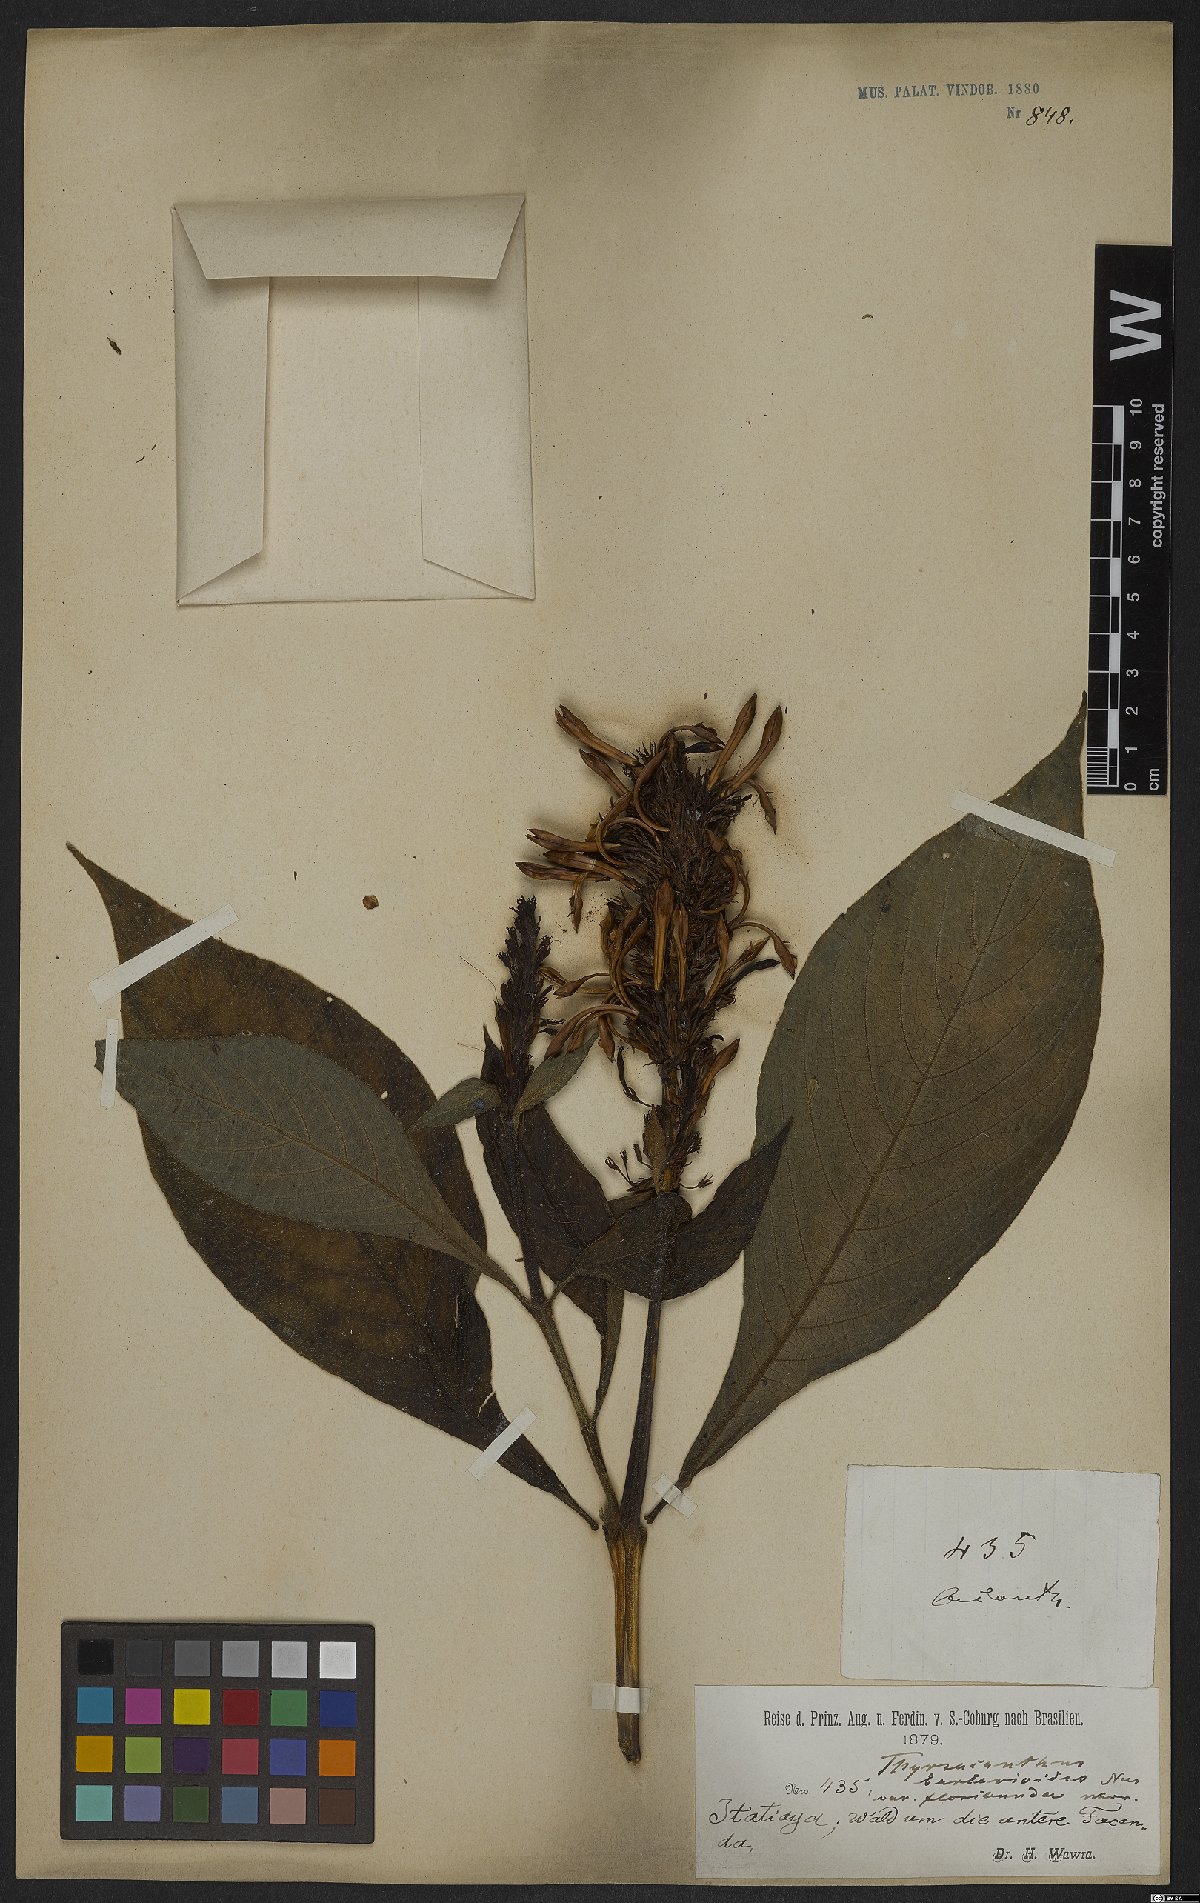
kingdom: Plantae
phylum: Tracheophyta
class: Magnoliopsida
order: Lamiales
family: Acanthaceae
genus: Odontonema
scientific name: Odontonema barlerioides
